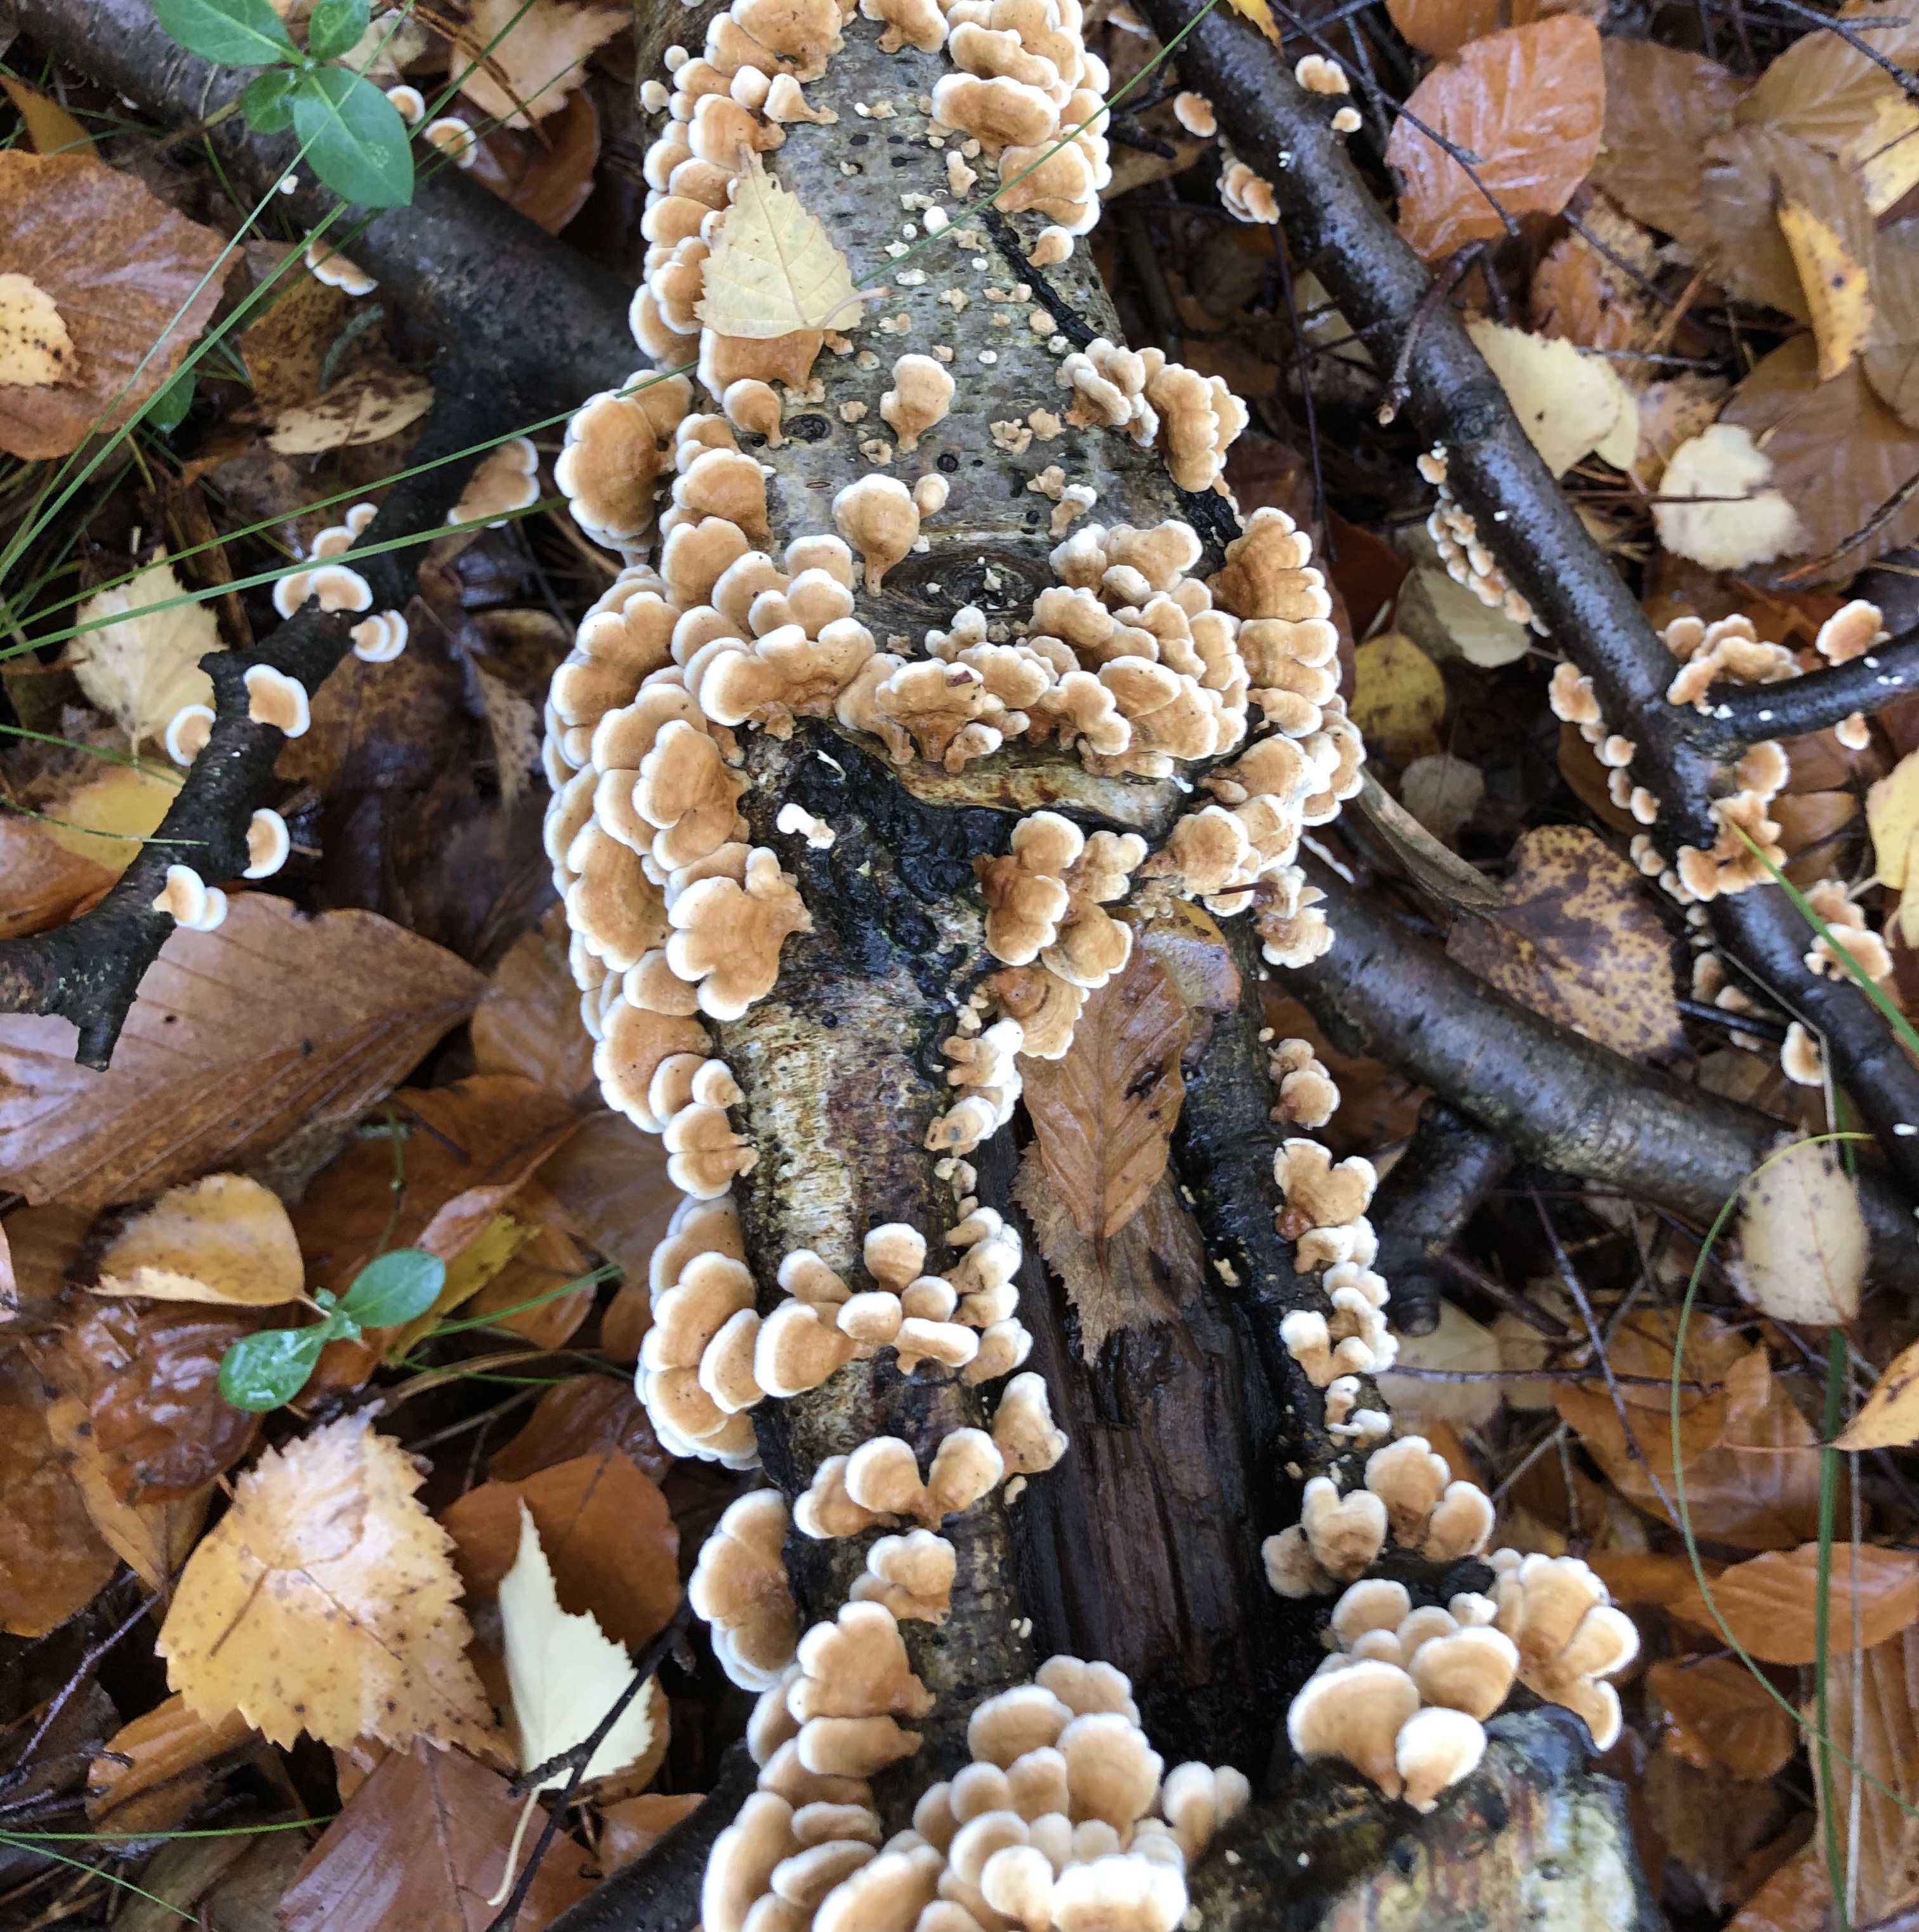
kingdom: Fungi
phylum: Basidiomycota
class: Agaricomycetes
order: Amylocorticiales
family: Amylocorticiaceae
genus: Plicaturopsis
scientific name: Plicaturopsis crispa
